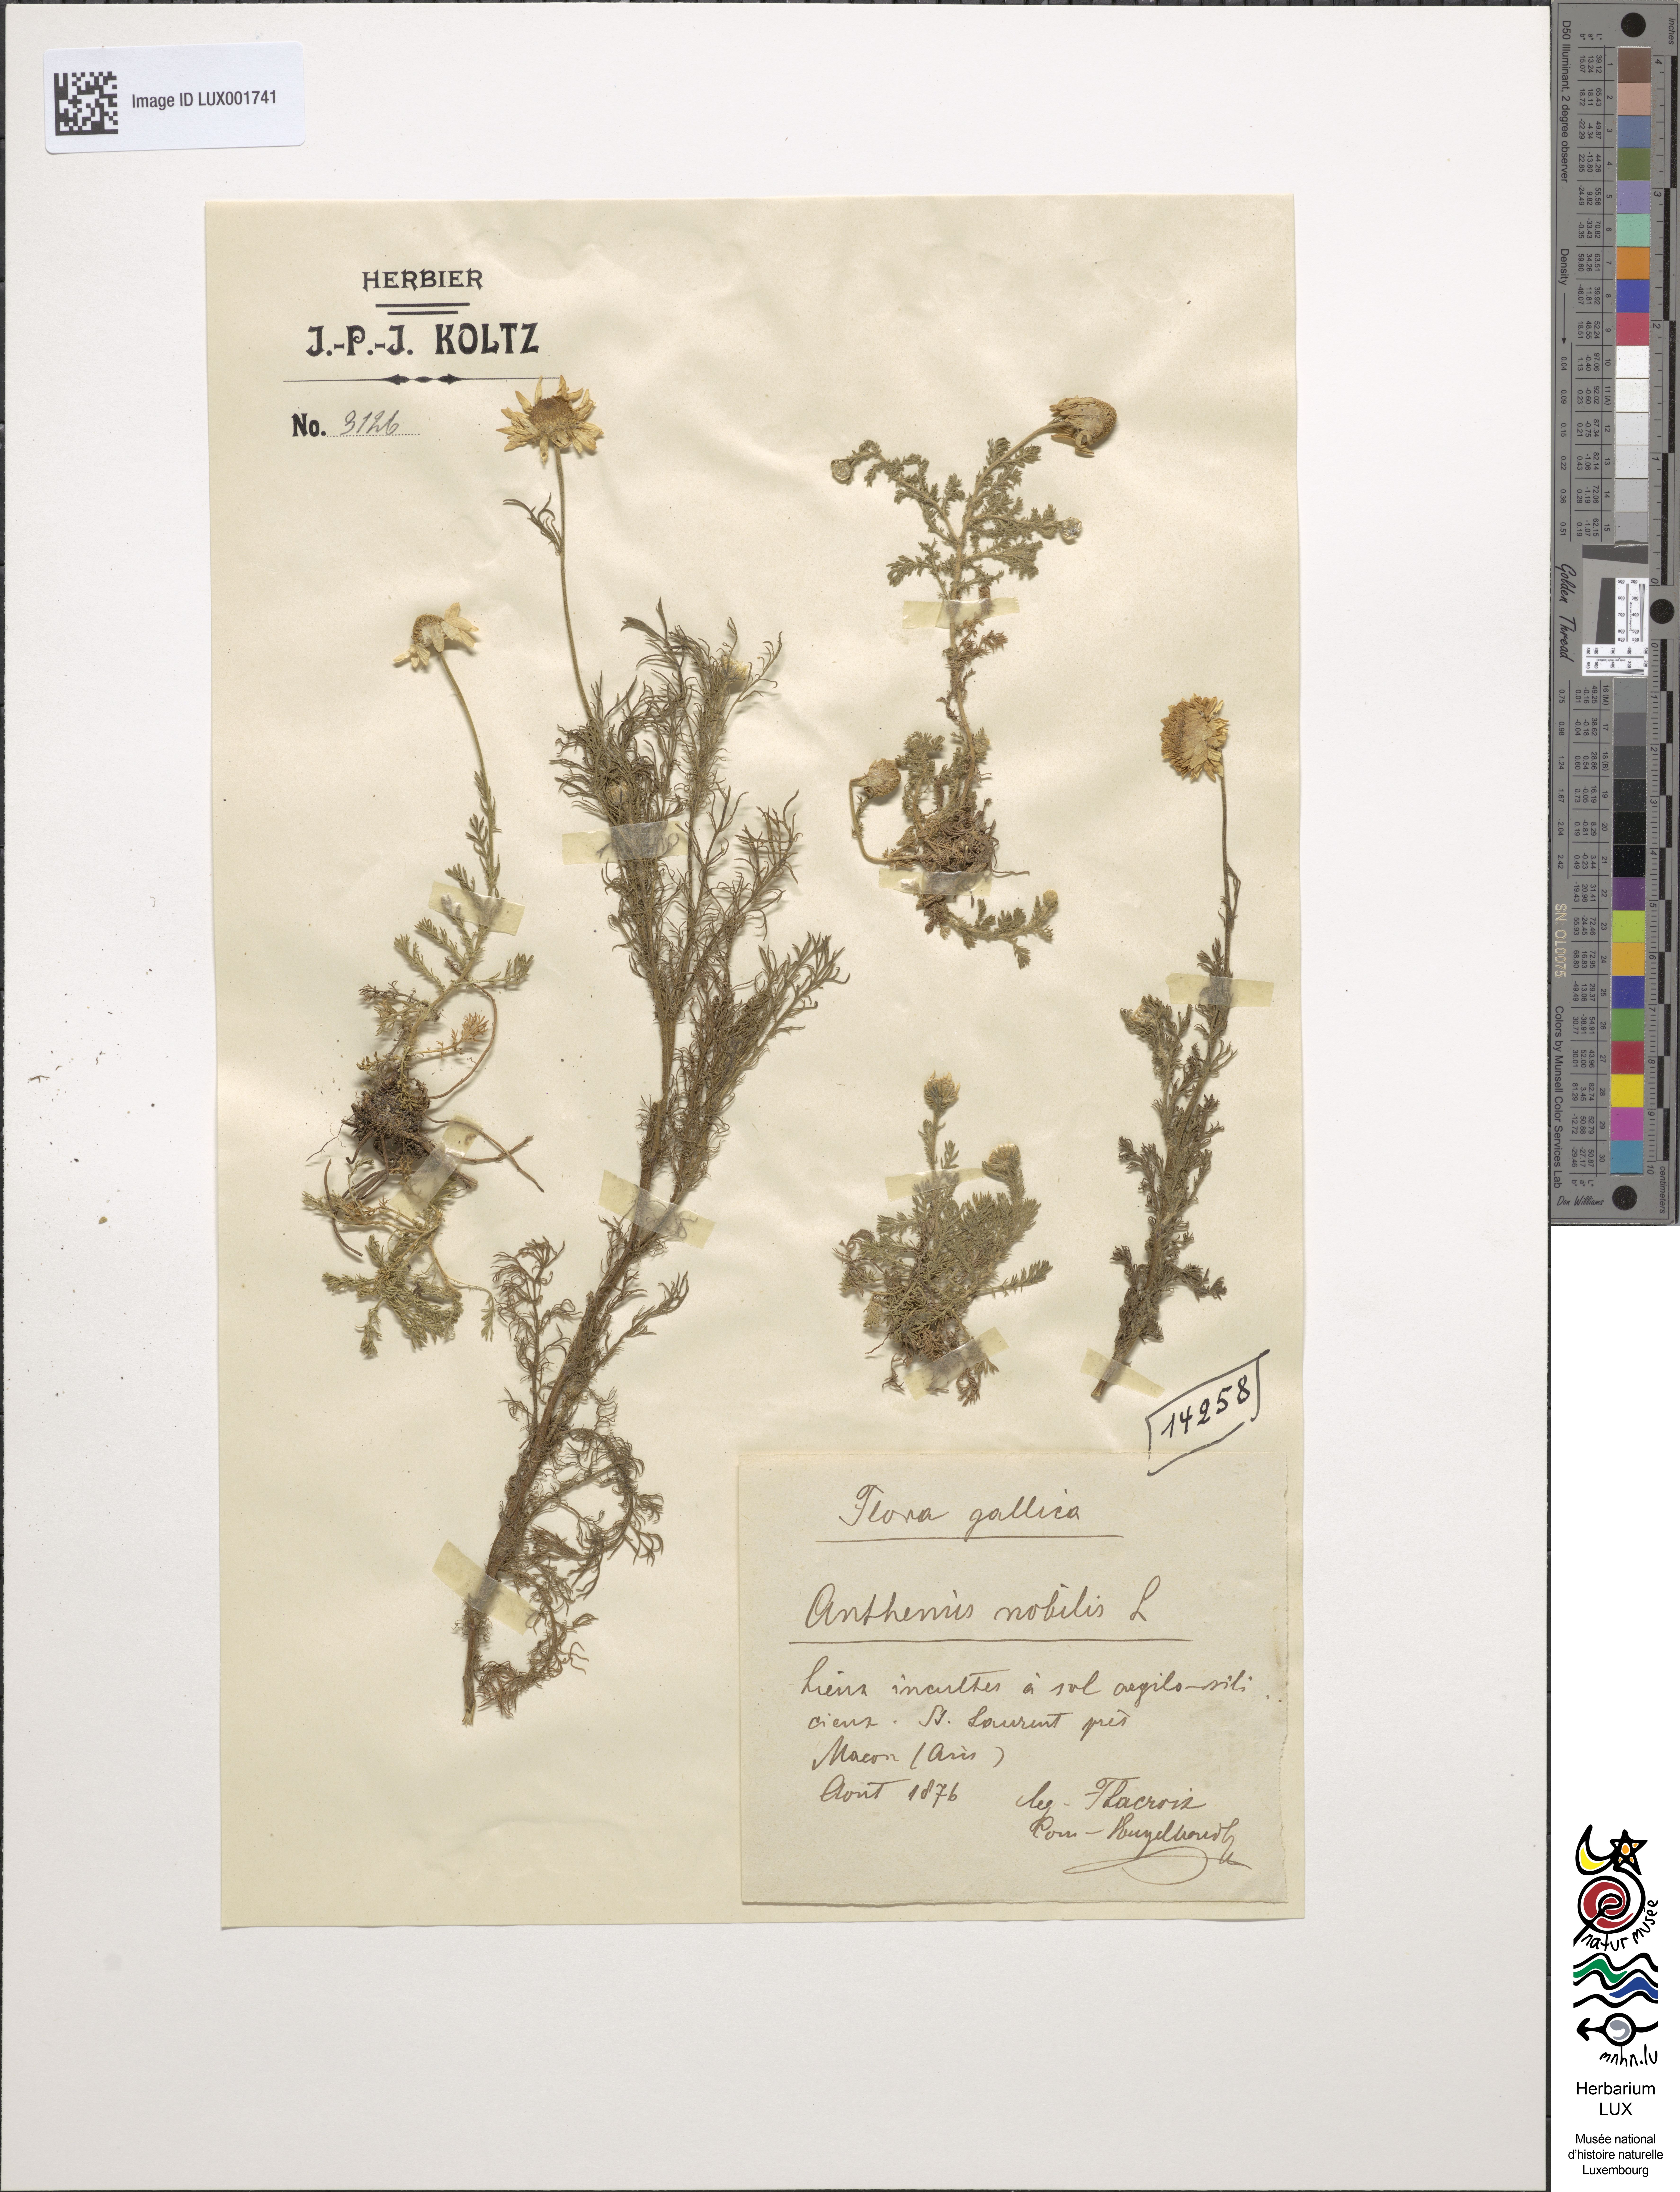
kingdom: Plantae
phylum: Tracheophyta
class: Magnoliopsida
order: Asterales
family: Asteraceae
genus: Chamaemelum
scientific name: Chamaemelum nobile
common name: Roman chamomile
